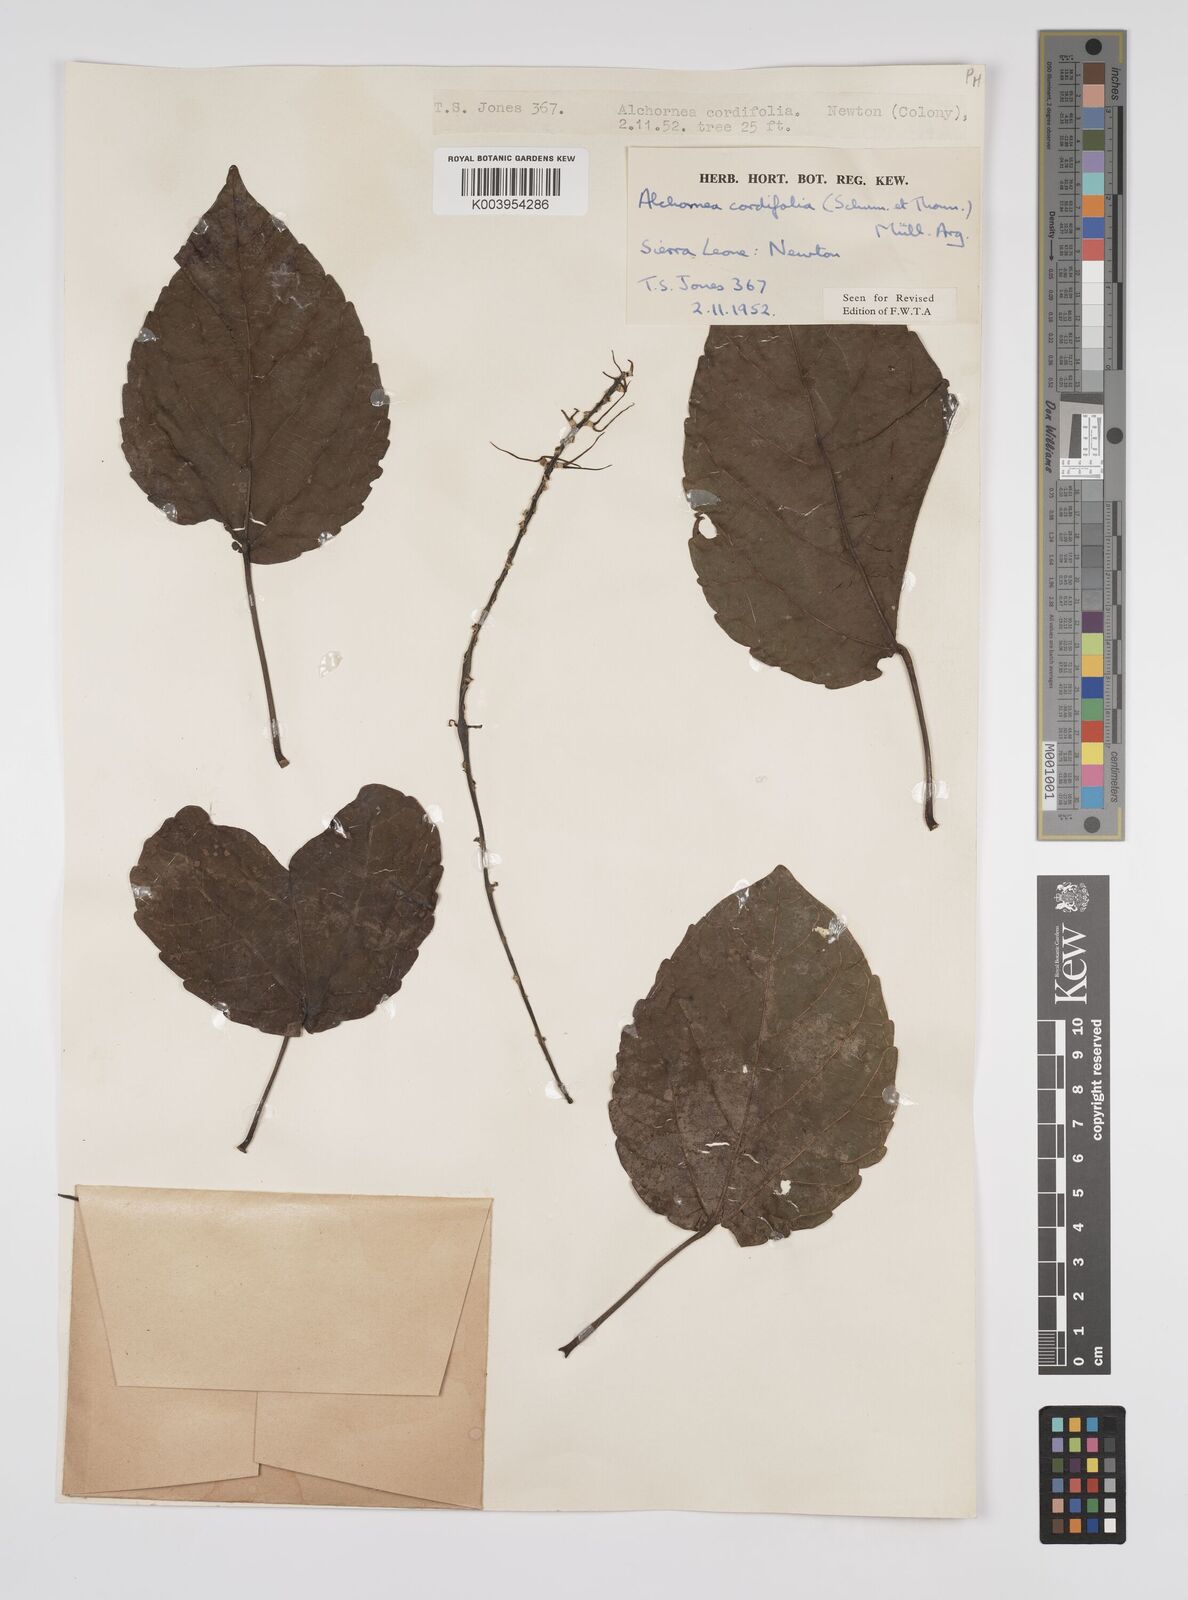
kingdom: Plantae
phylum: Tracheophyta
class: Magnoliopsida
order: Malpighiales
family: Euphorbiaceae
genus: Alchornea
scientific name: Alchornea cordifolia
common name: Christmasbush
